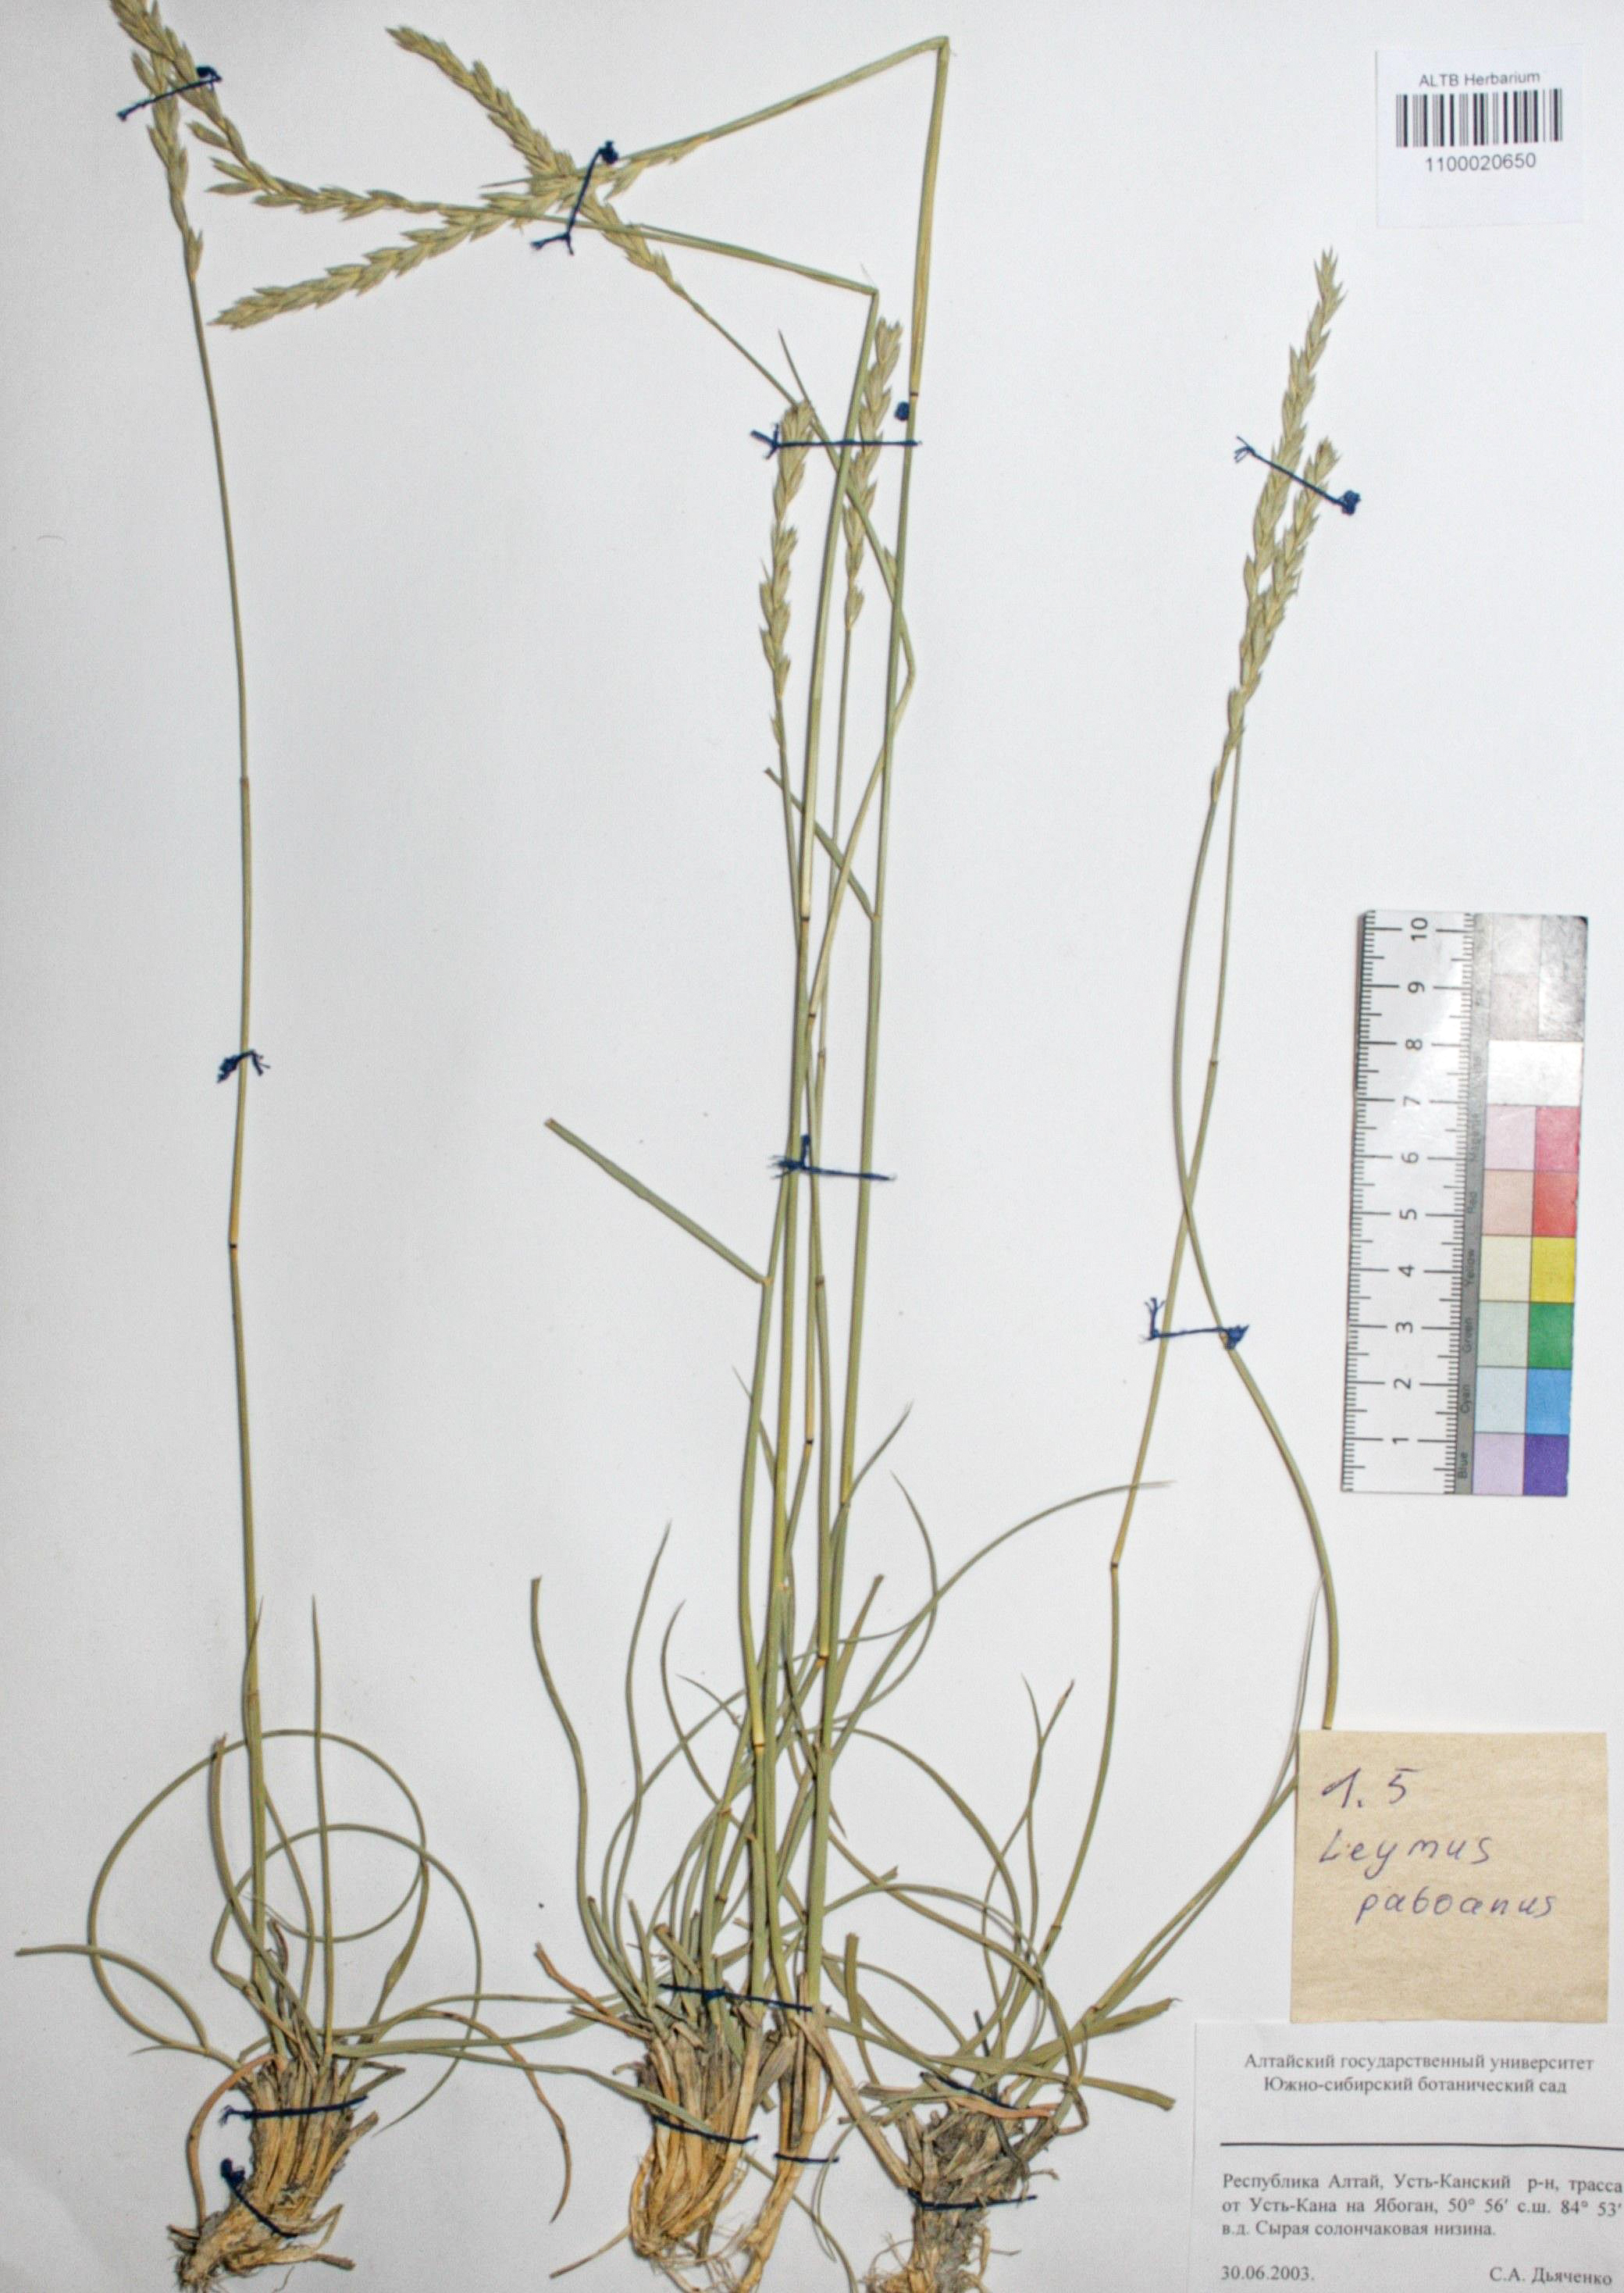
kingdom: Plantae
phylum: Tracheophyta
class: Liliopsida
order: Poales
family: Poaceae
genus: Leymus
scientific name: Leymus paboanus
